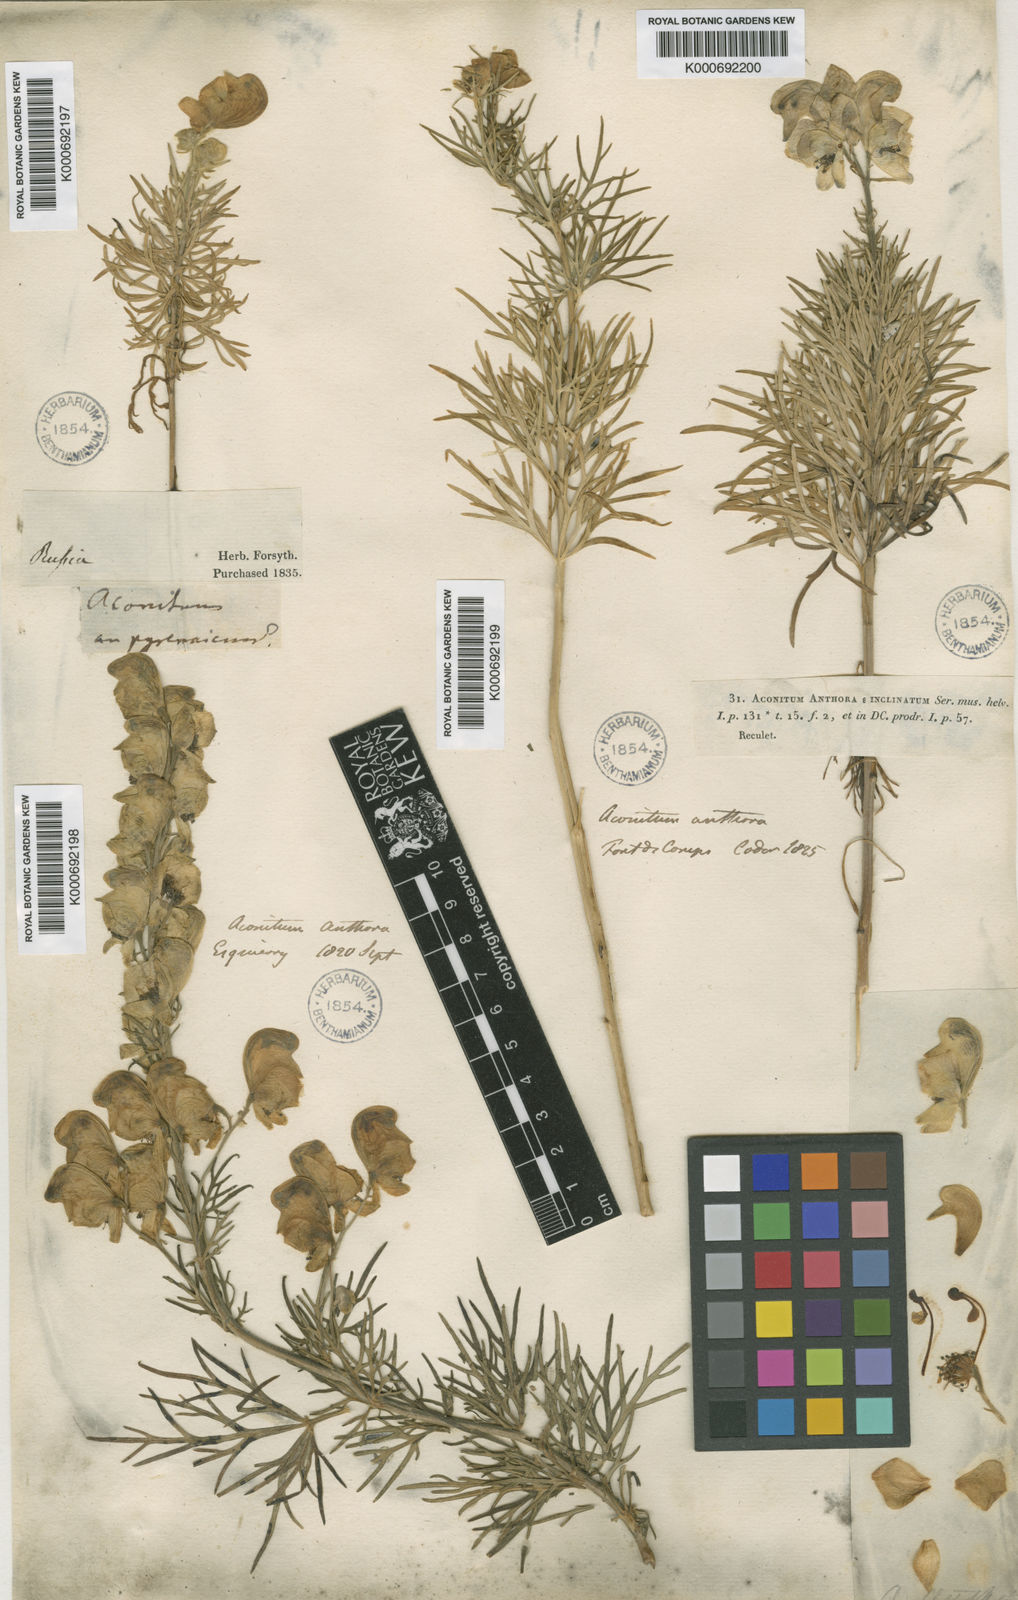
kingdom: Plantae
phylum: Tracheophyta
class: Magnoliopsida
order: Ranunculales
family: Ranunculaceae
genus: Aconitum
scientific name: Aconitum anthora
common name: Yellow monkshood
